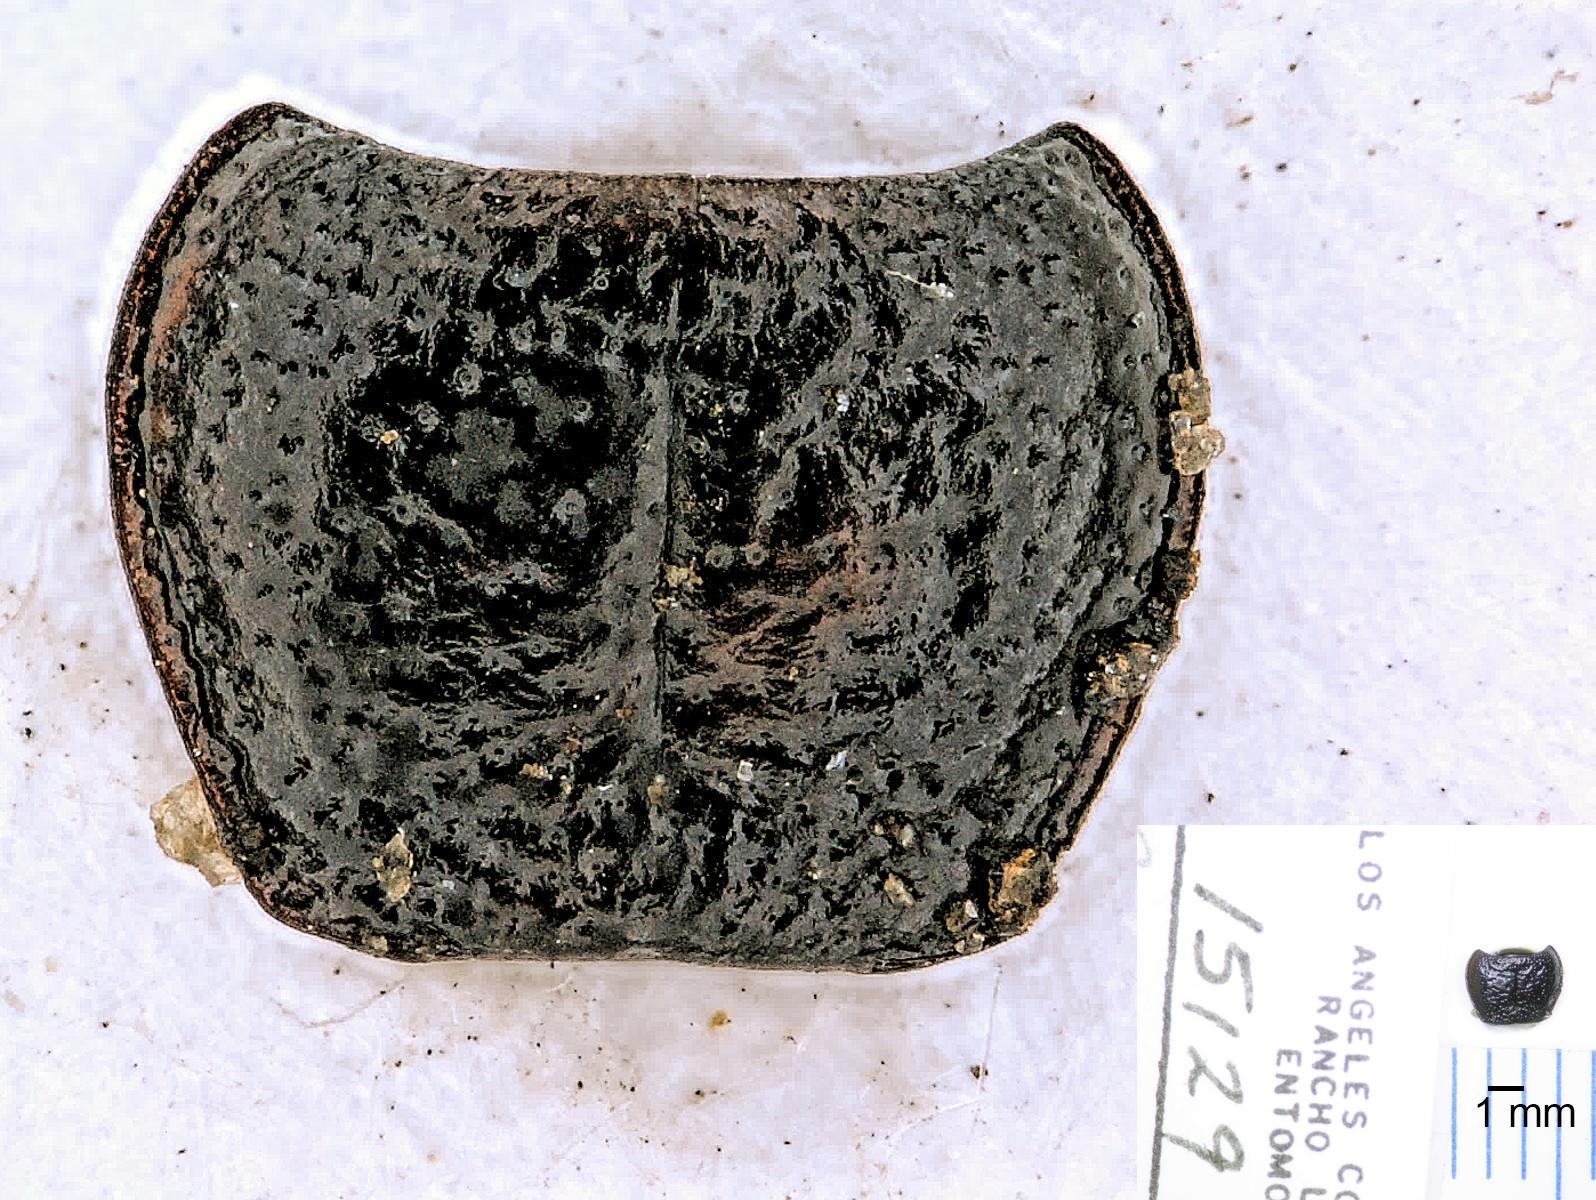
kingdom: Animalia
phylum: Arthropoda
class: Insecta
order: Coleoptera
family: Carabidae
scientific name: Carabidae
